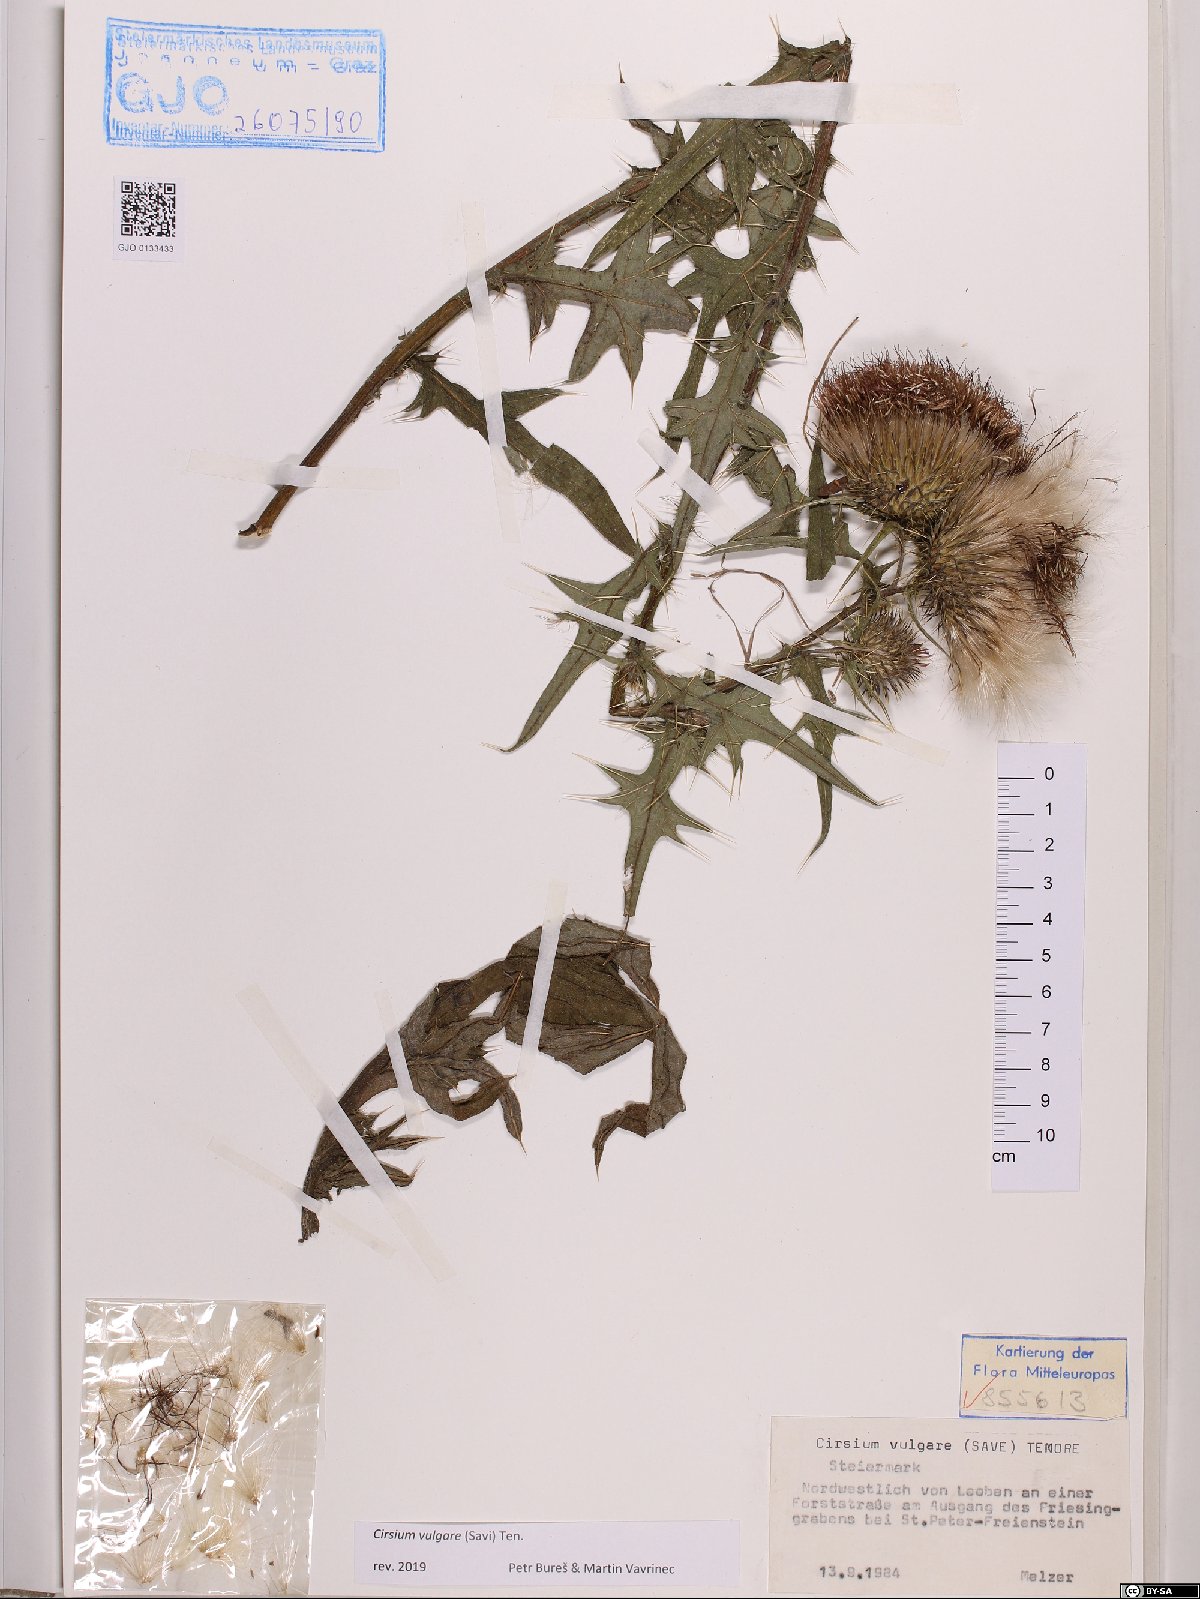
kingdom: Plantae
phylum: Tracheophyta
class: Magnoliopsida
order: Asterales
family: Asteraceae
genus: Cirsium
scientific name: Cirsium vulgare
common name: Bull thistle
